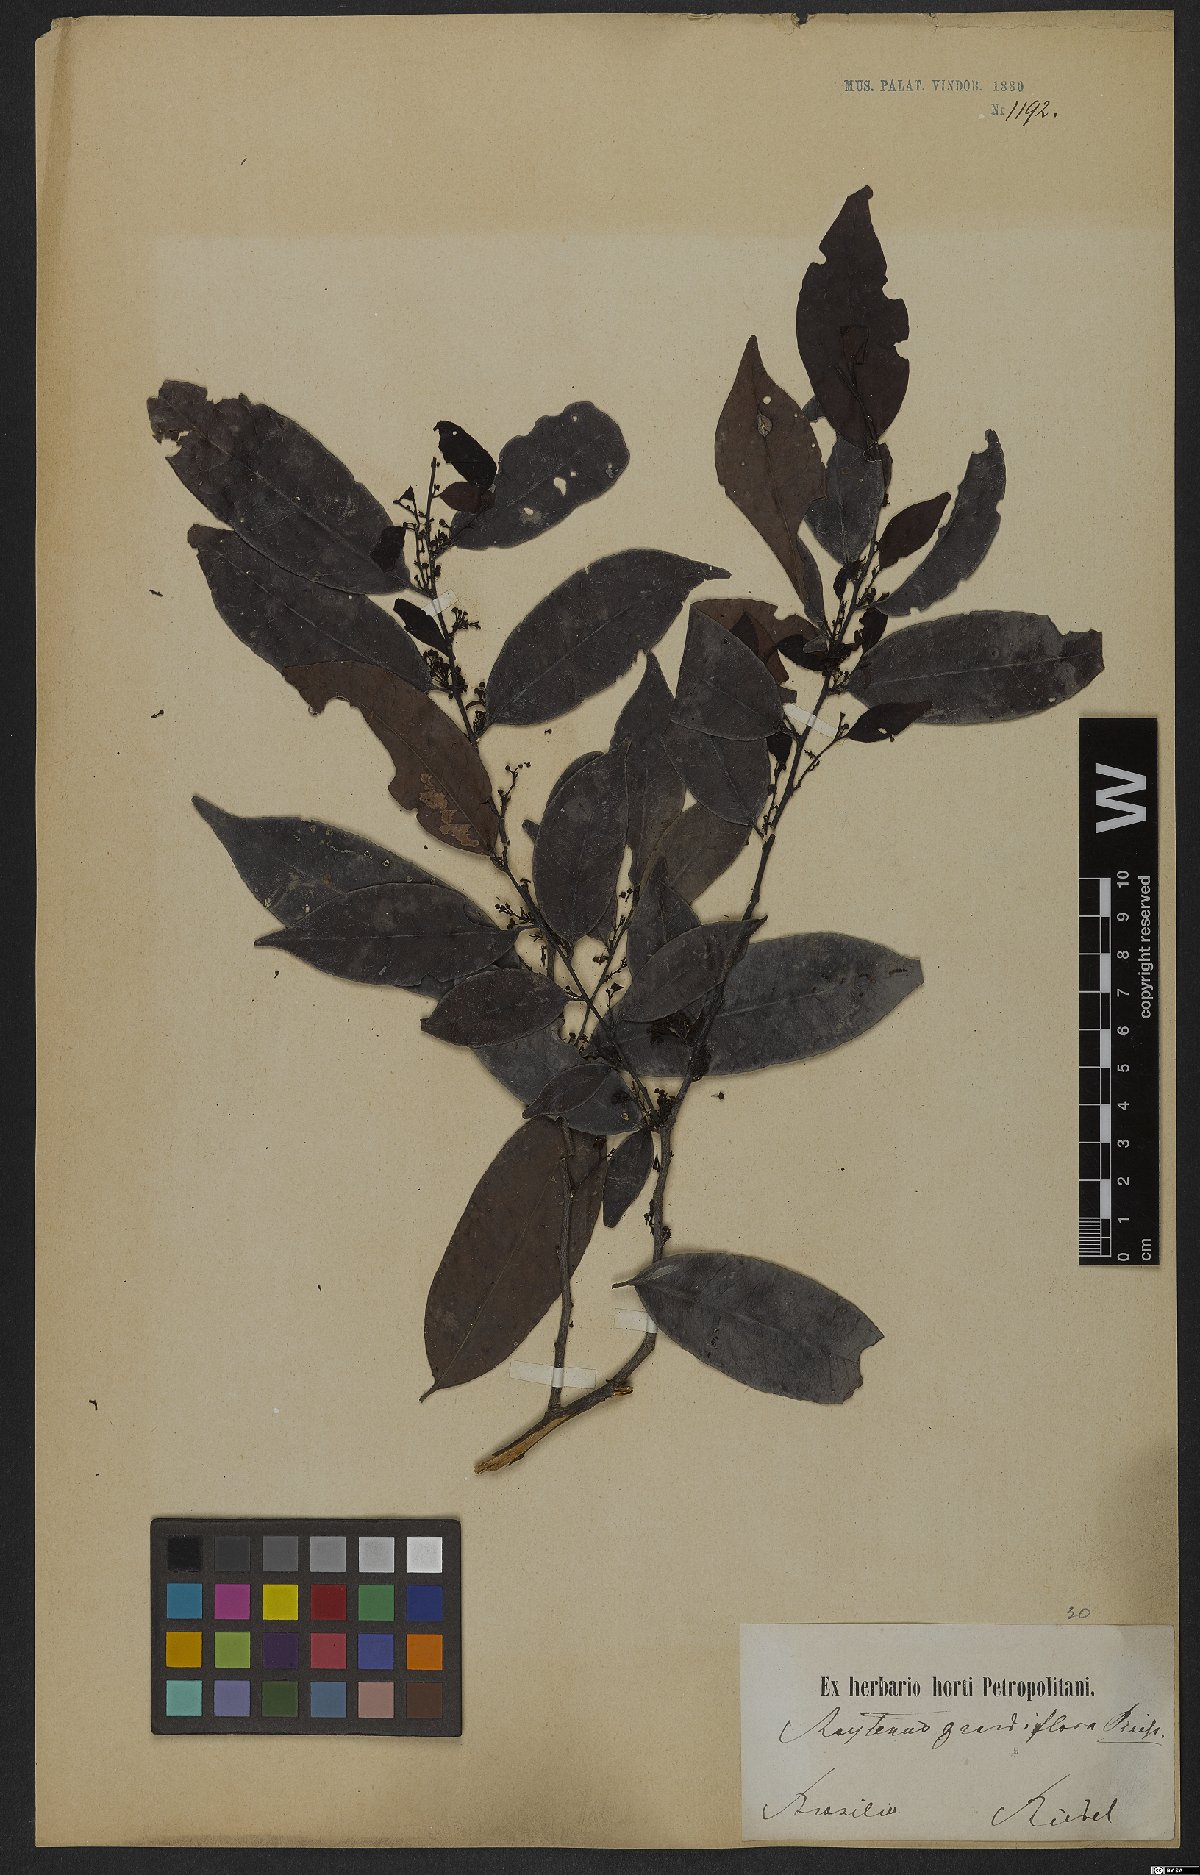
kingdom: Plantae
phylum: Tracheophyta
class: Magnoliopsida
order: Celastrales
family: Celastraceae
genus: Monteverdia
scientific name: Monteverdia communis
